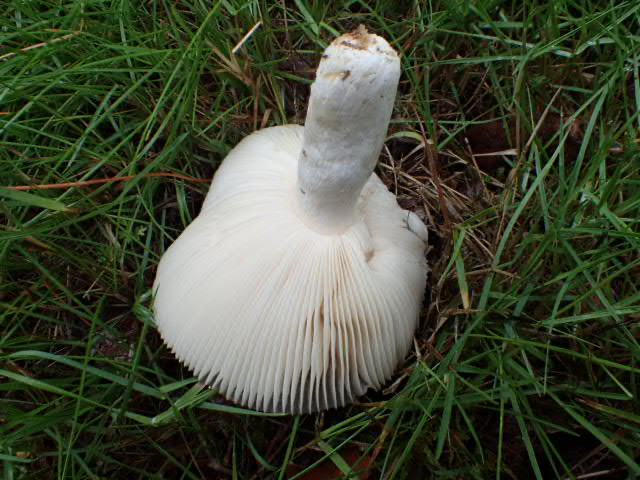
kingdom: Fungi
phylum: Basidiomycota
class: Agaricomycetes
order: Russulales
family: Russulaceae
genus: Russula
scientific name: Russula
